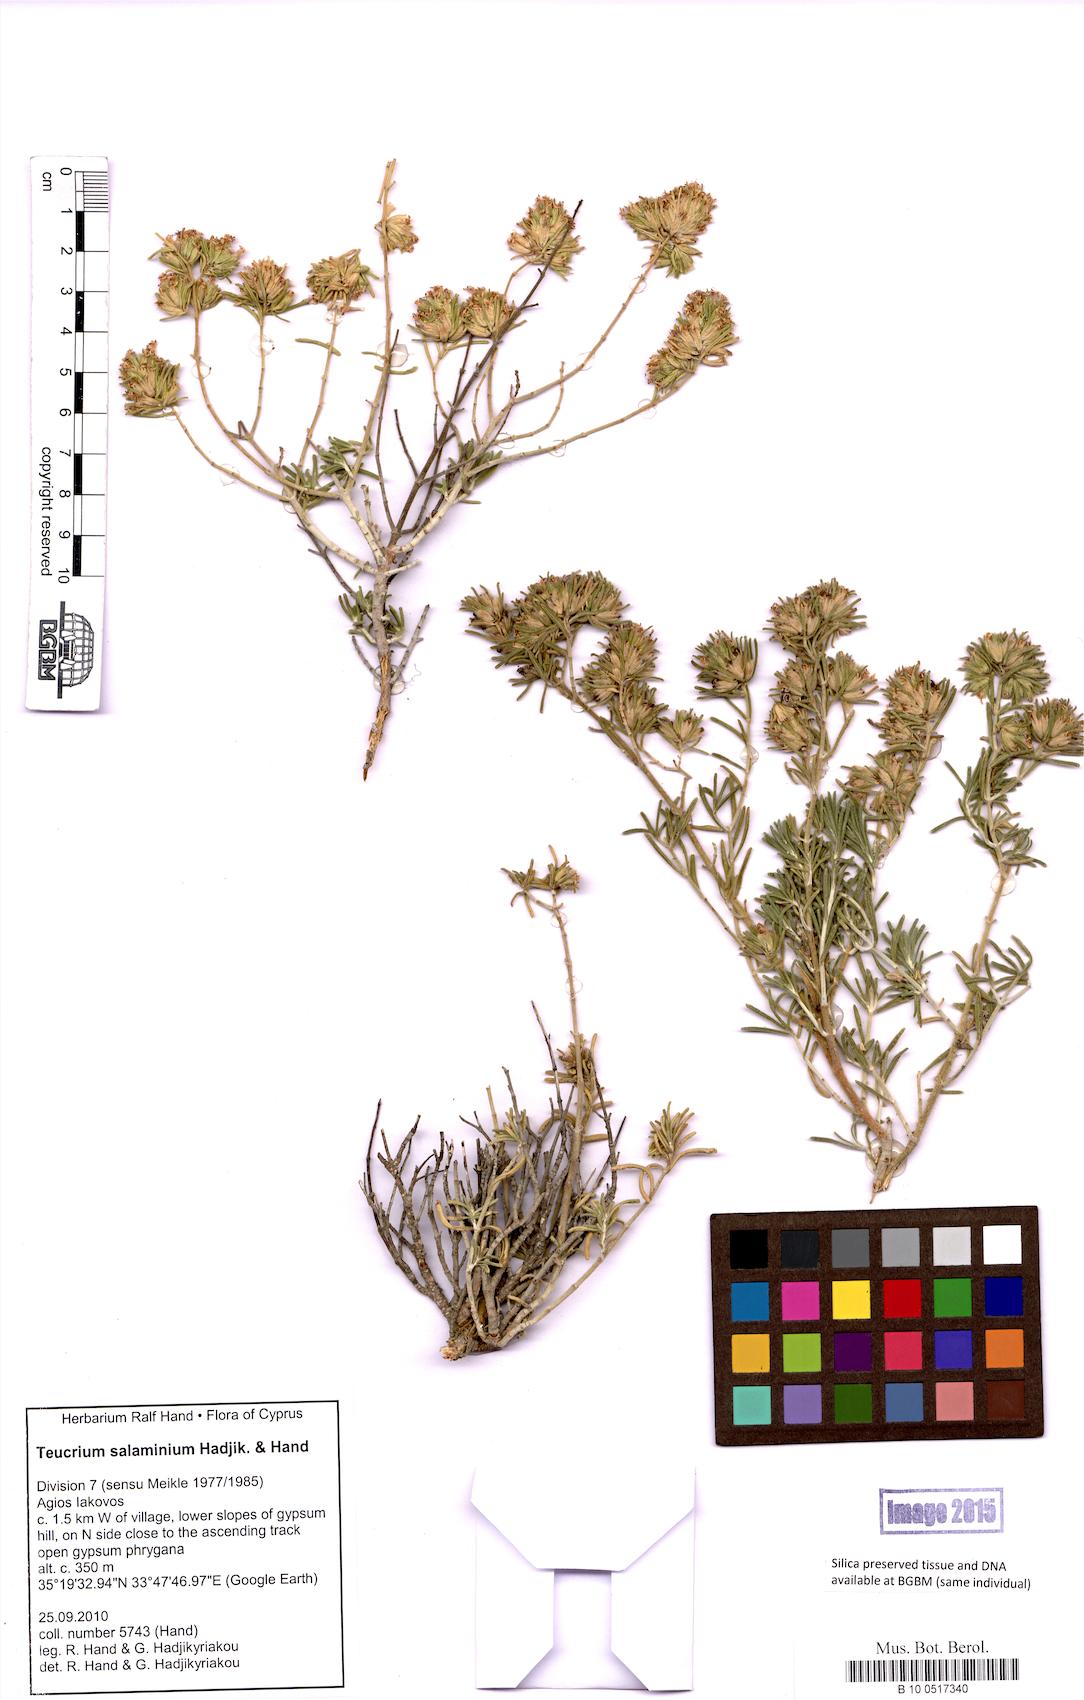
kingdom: Plantae
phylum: Tracheophyta
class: Magnoliopsida
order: Lamiales
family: Lamiaceae
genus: Teucrium
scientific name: Teucrium salaminium
